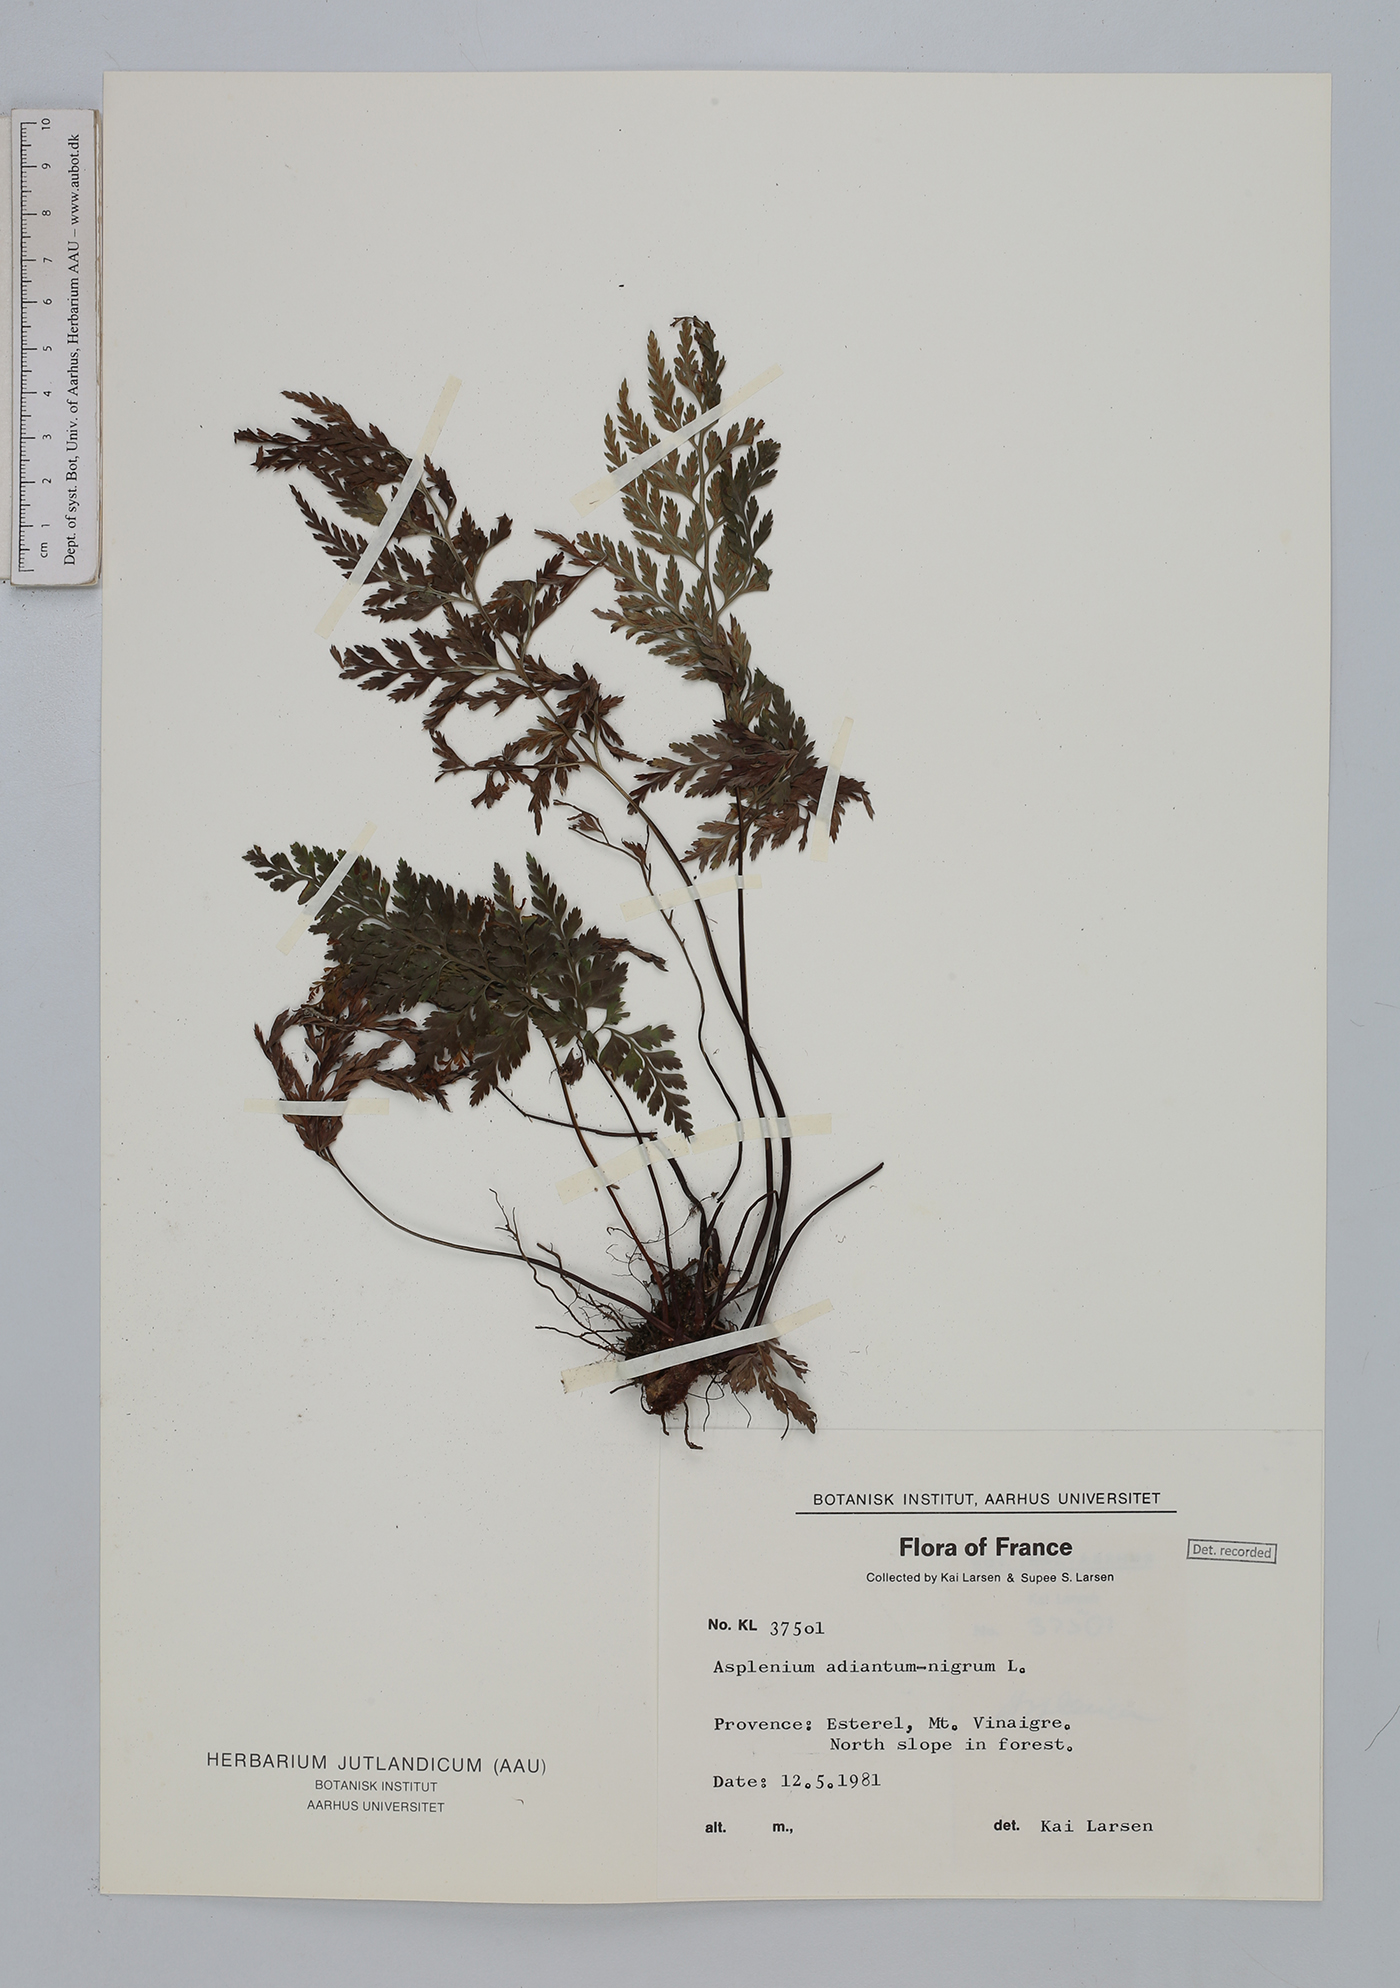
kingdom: Plantae
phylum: Tracheophyta
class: Polypodiopsida
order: Polypodiales
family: Aspleniaceae
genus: Asplenium
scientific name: Asplenium adiantum-nigrum
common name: Black spleenwort
